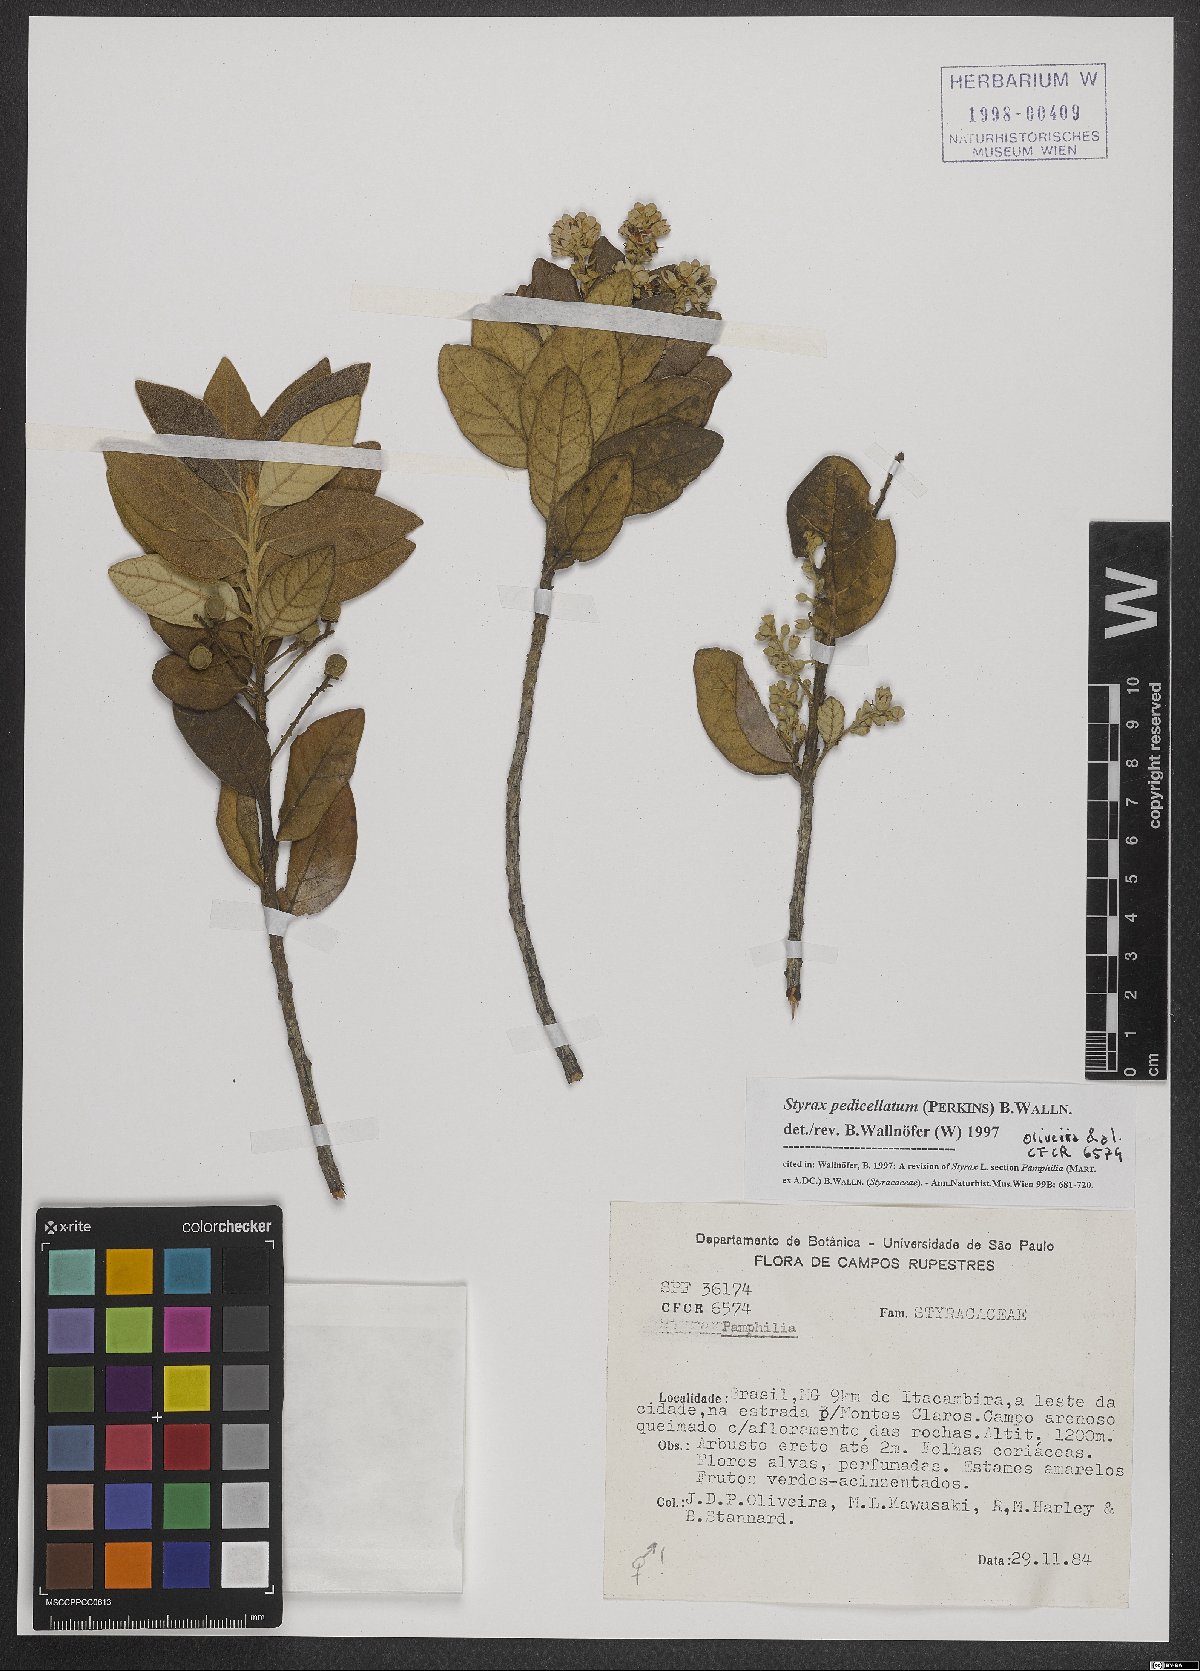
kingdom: Plantae
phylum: Tracheophyta
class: Magnoliopsida
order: Ericales
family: Styracaceae
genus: Styrax
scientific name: Styrax pedicellatus
